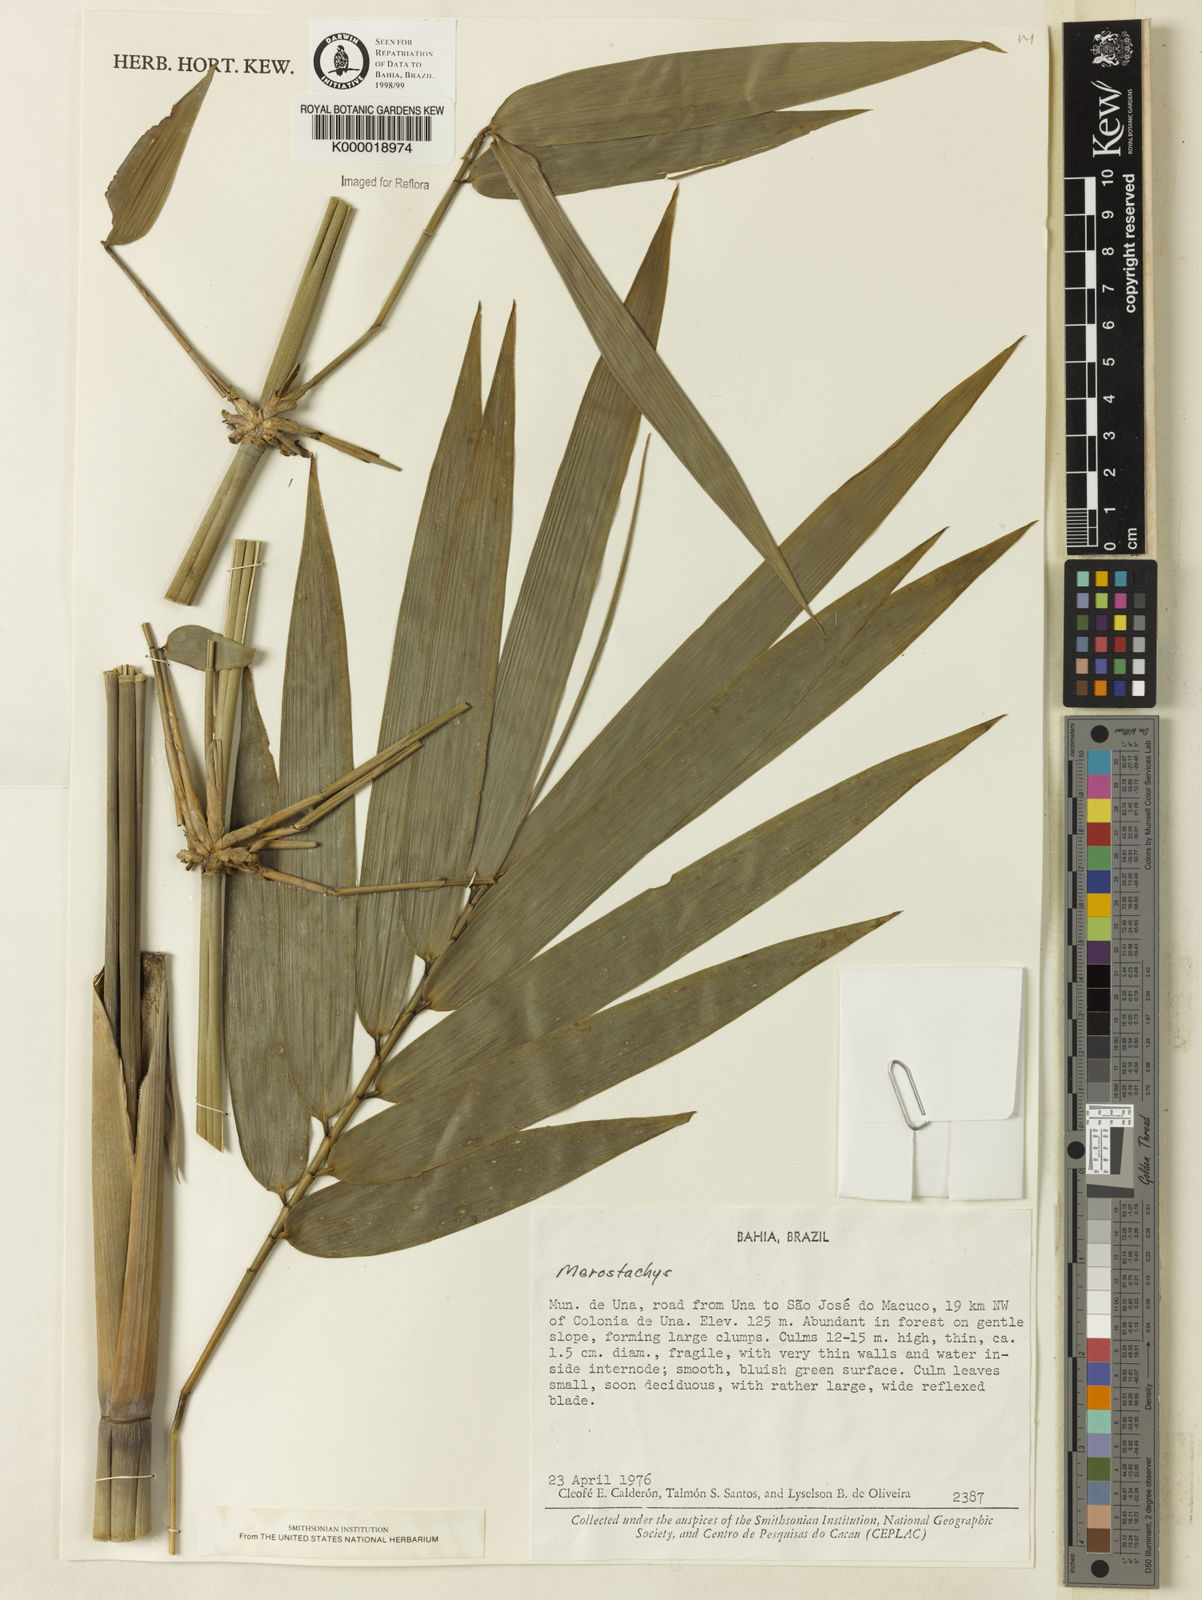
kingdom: Plantae
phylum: Tracheophyta
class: Liliopsida
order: Poales
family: Poaceae
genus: Merostachys
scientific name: Merostachys
